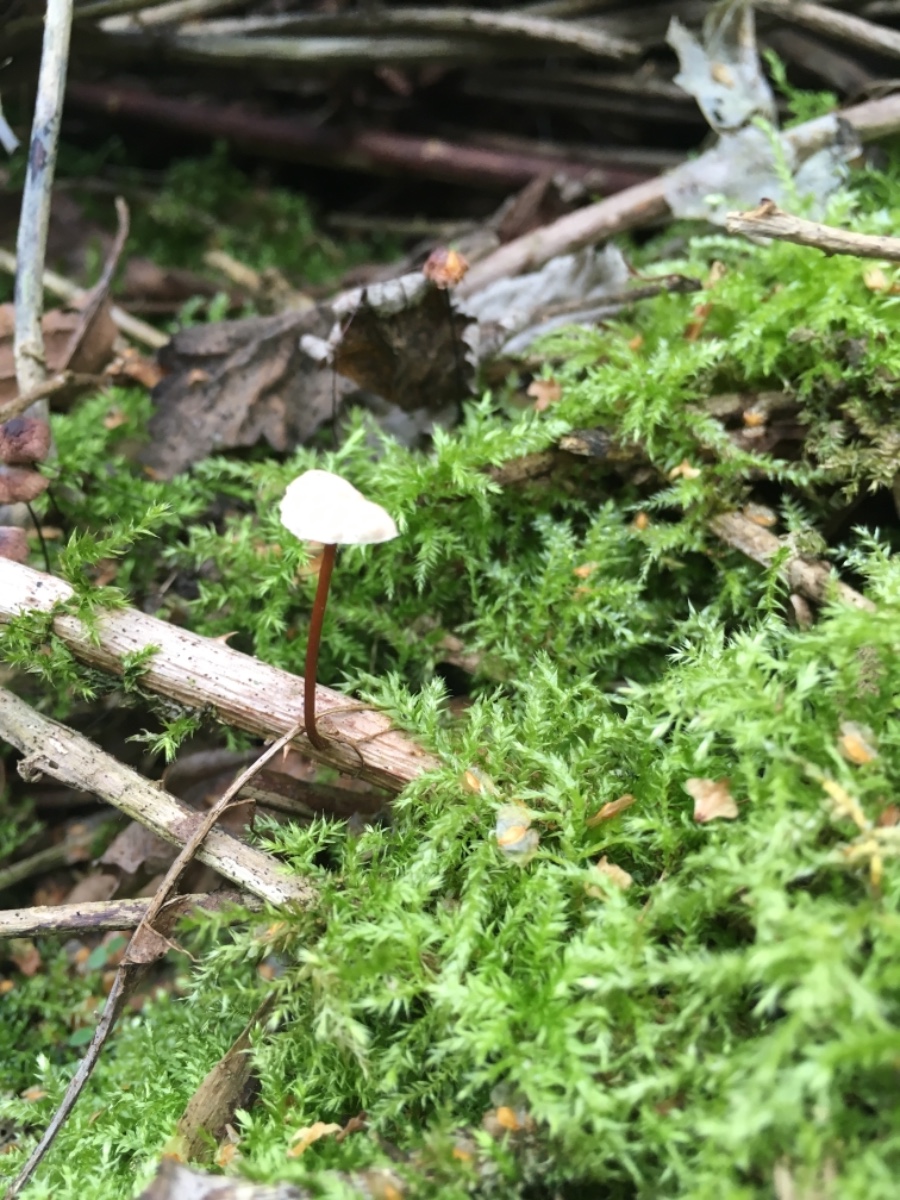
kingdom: Fungi
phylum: Basidiomycota
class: Agaricomycetes
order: Agaricales
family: Omphalotaceae
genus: Mycetinis
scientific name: Mycetinis scorodonius
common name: lille løghat
